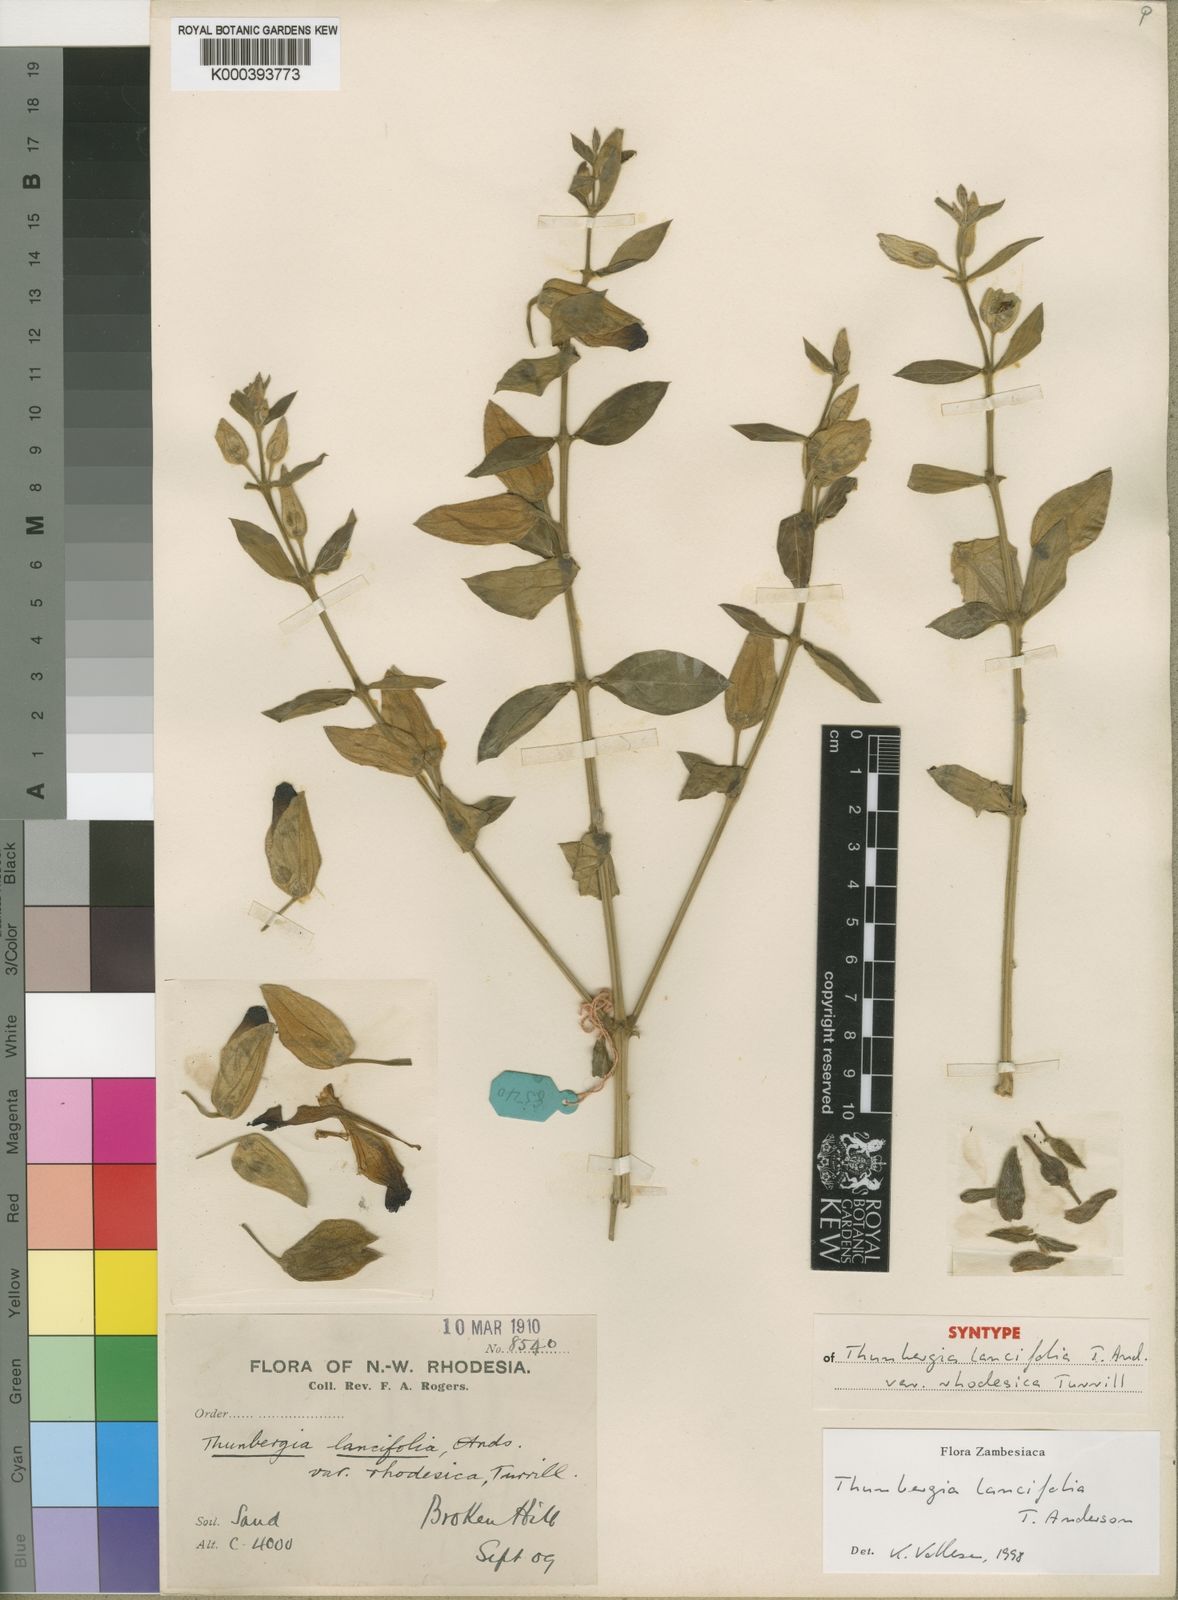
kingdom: Plantae
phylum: Tracheophyta
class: Magnoliopsida
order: Lamiales
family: Acanthaceae
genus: Thunbergia
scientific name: Thunbergia lancifolia
